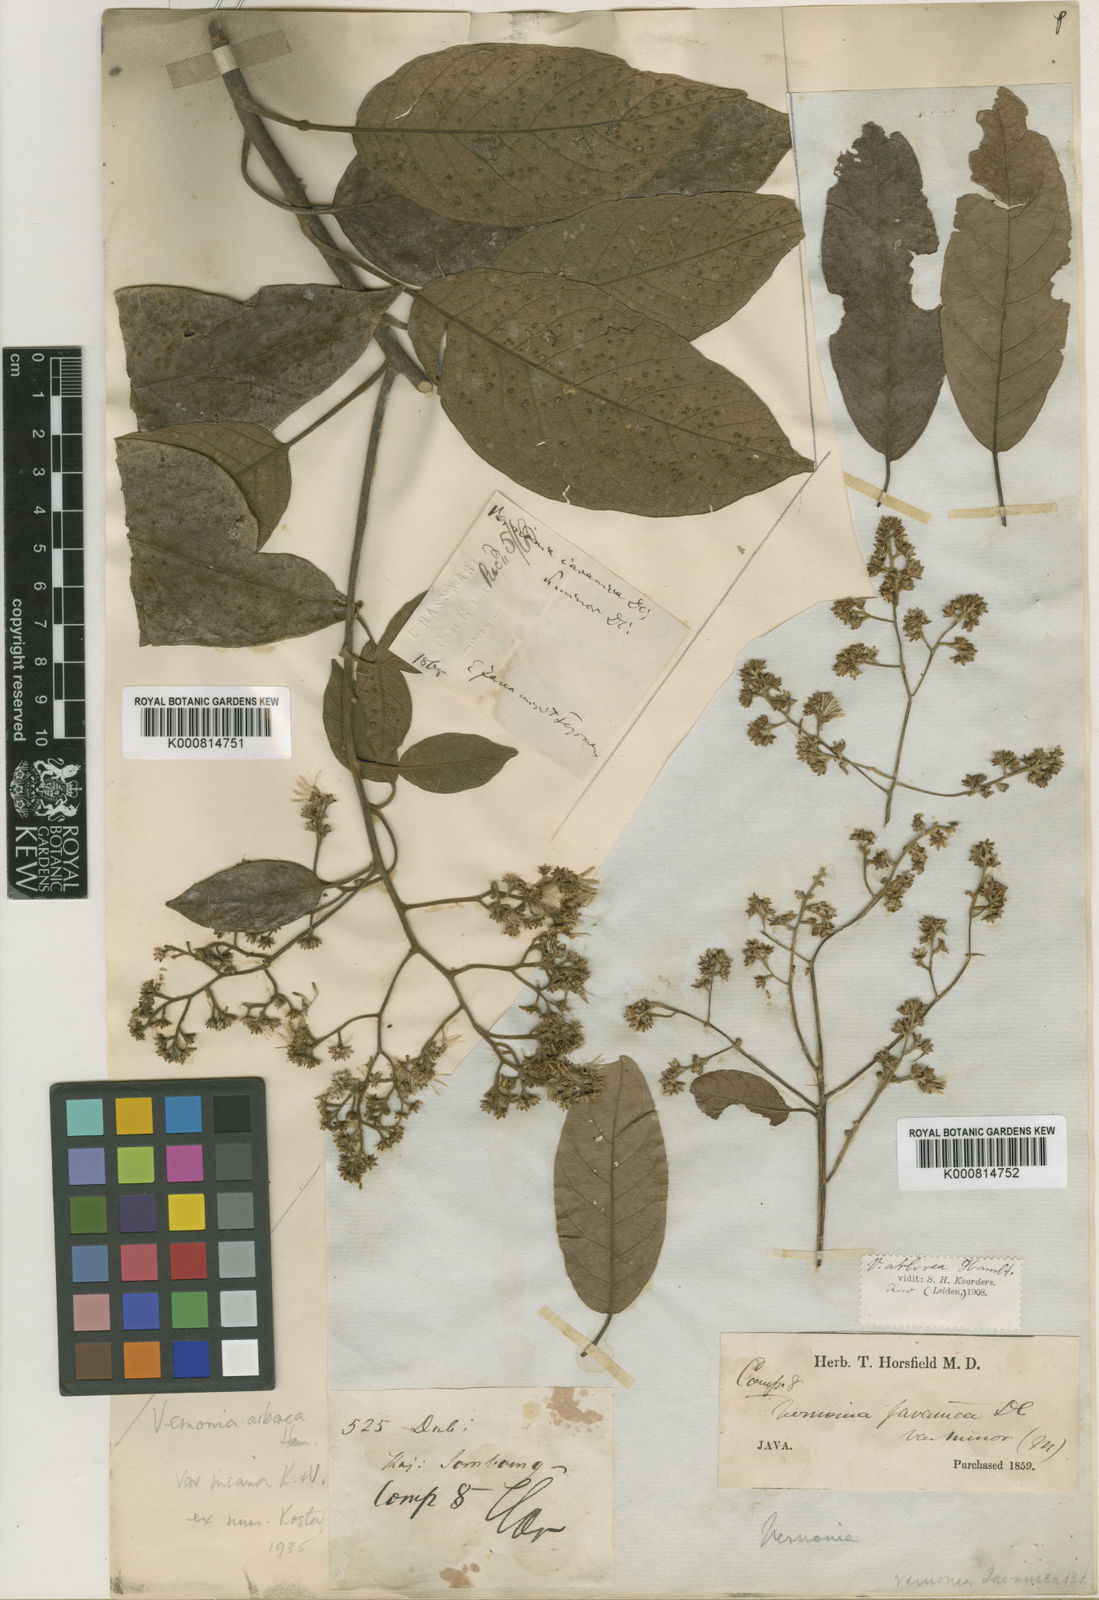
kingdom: Plantae
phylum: Tracheophyta
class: Magnoliopsida
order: Asterales
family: Asteraceae
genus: Strobocalyx
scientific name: Strobocalyx arborea
